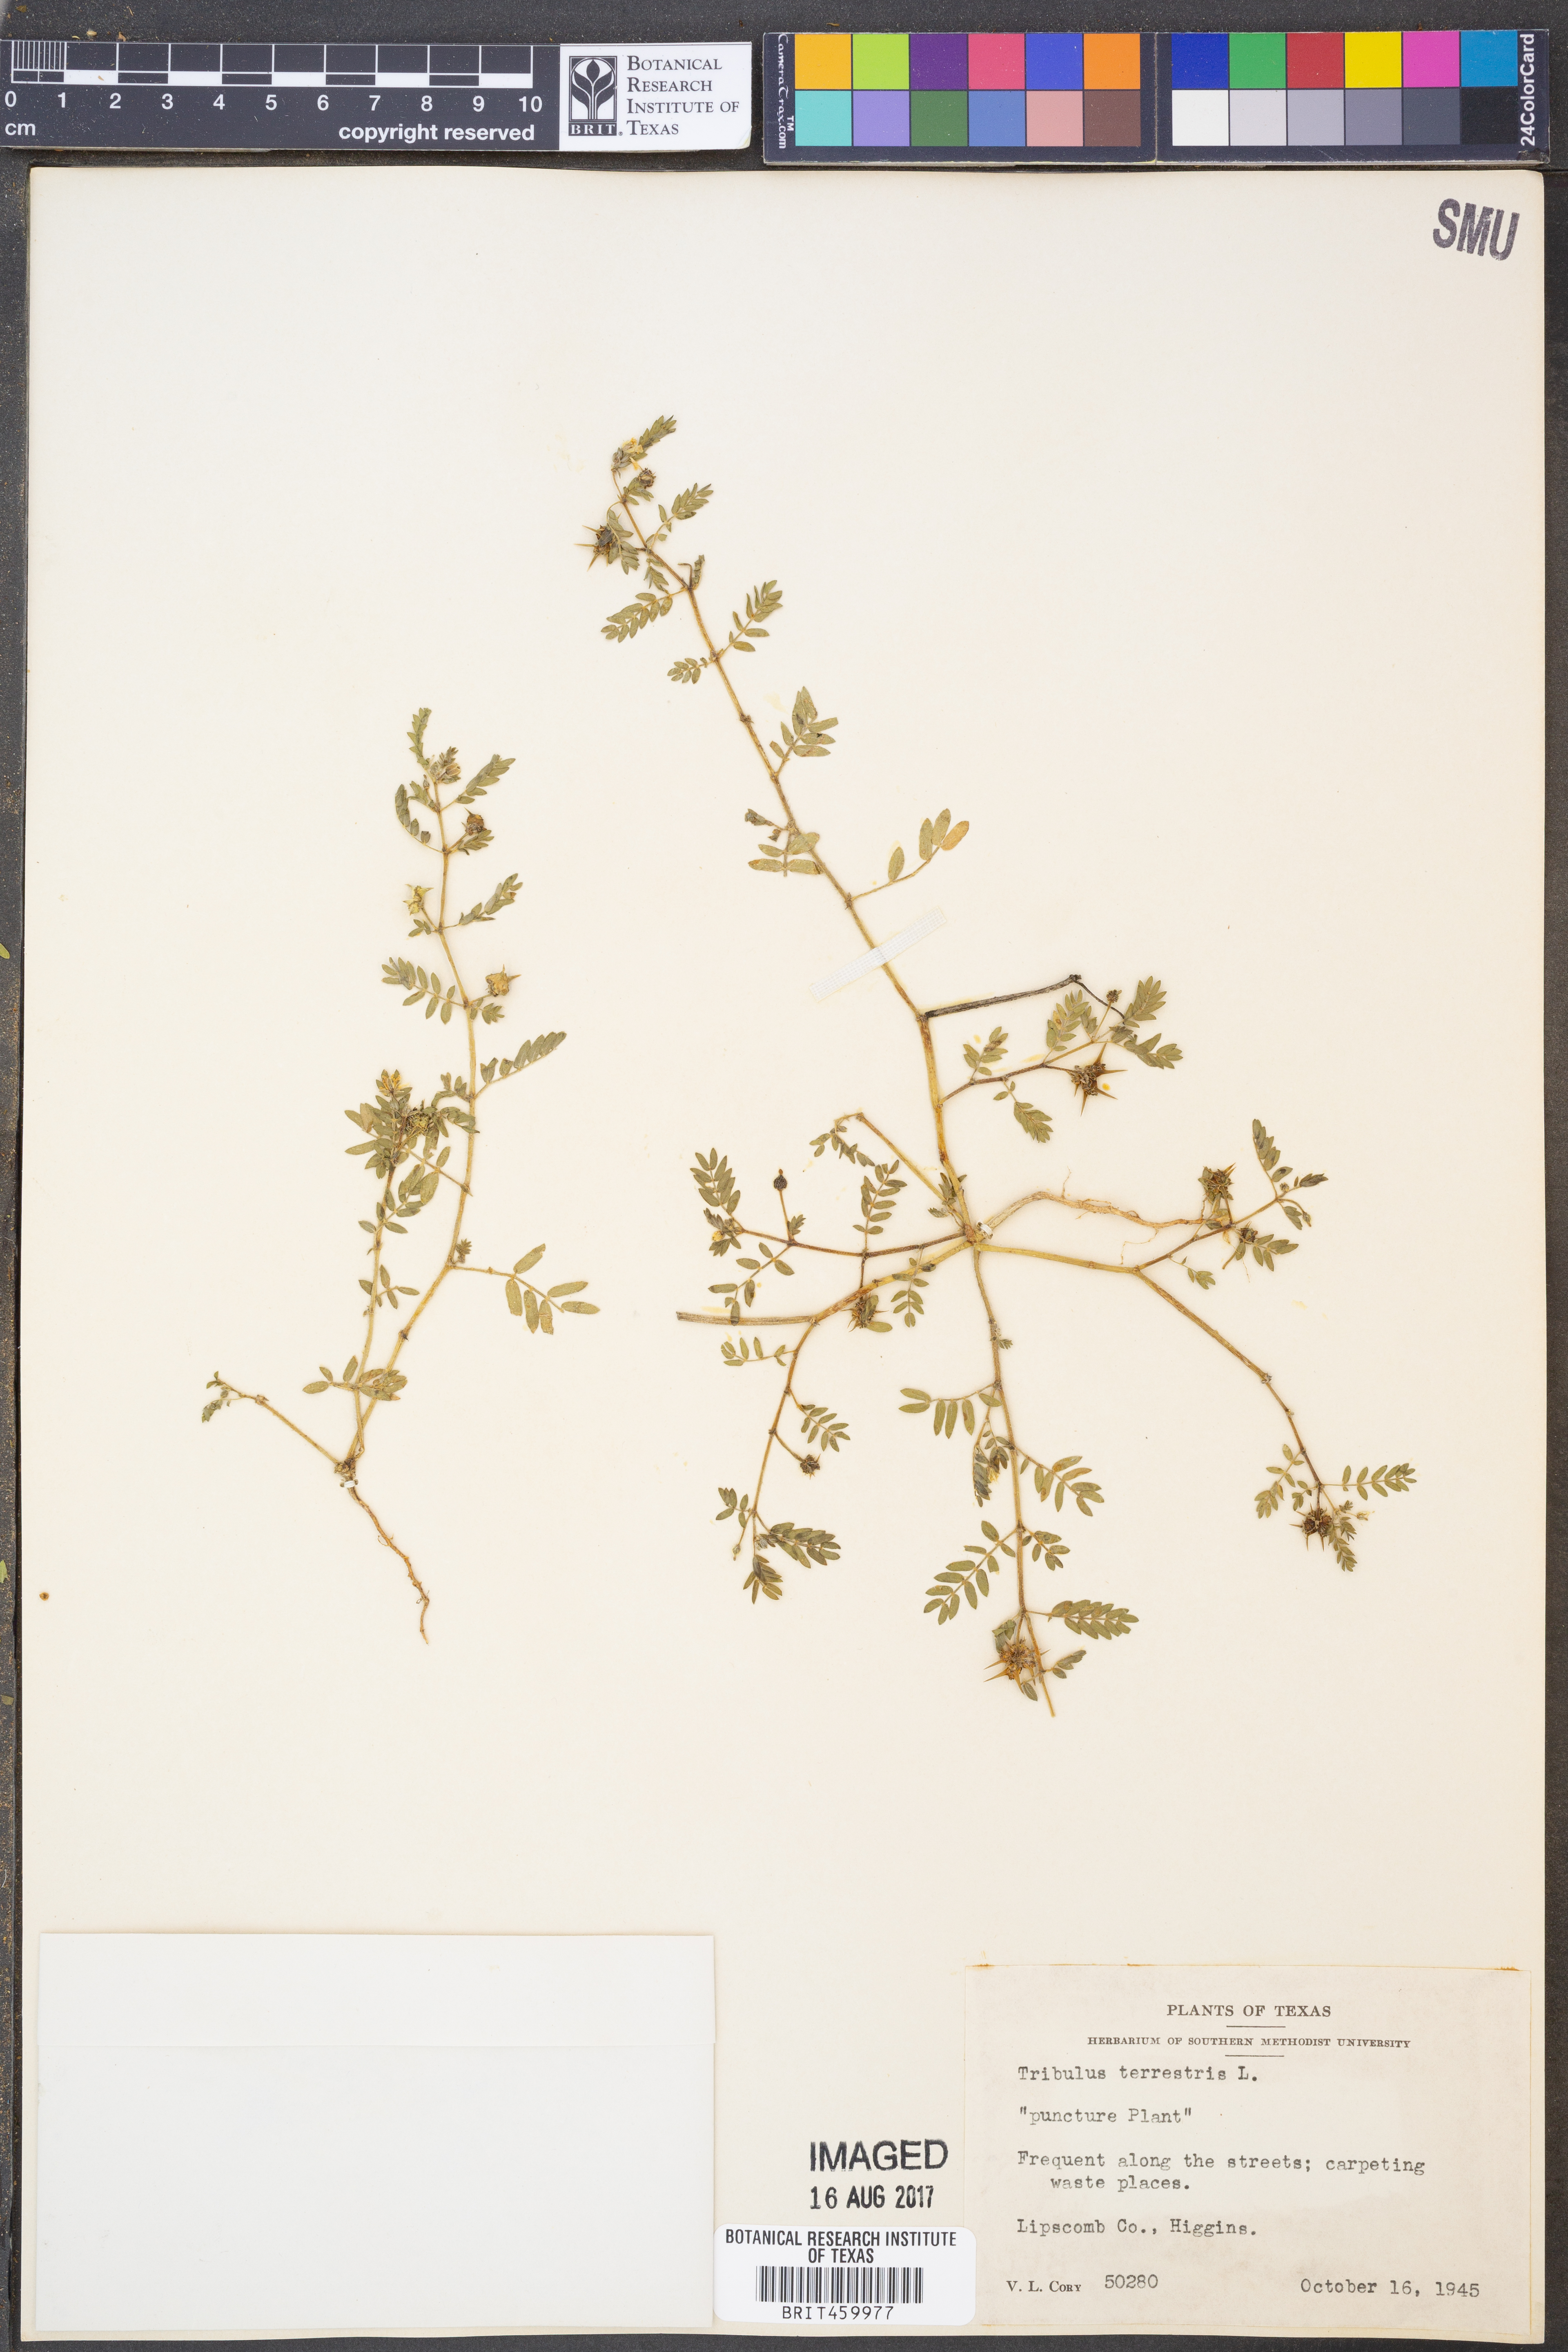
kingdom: Plantae
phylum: Tracheophyta
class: Magnoliopsida
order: Zygophyllales
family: Zygophyllaceae
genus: Tribulus
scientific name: Tribulus terrestris
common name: Puncturevine
